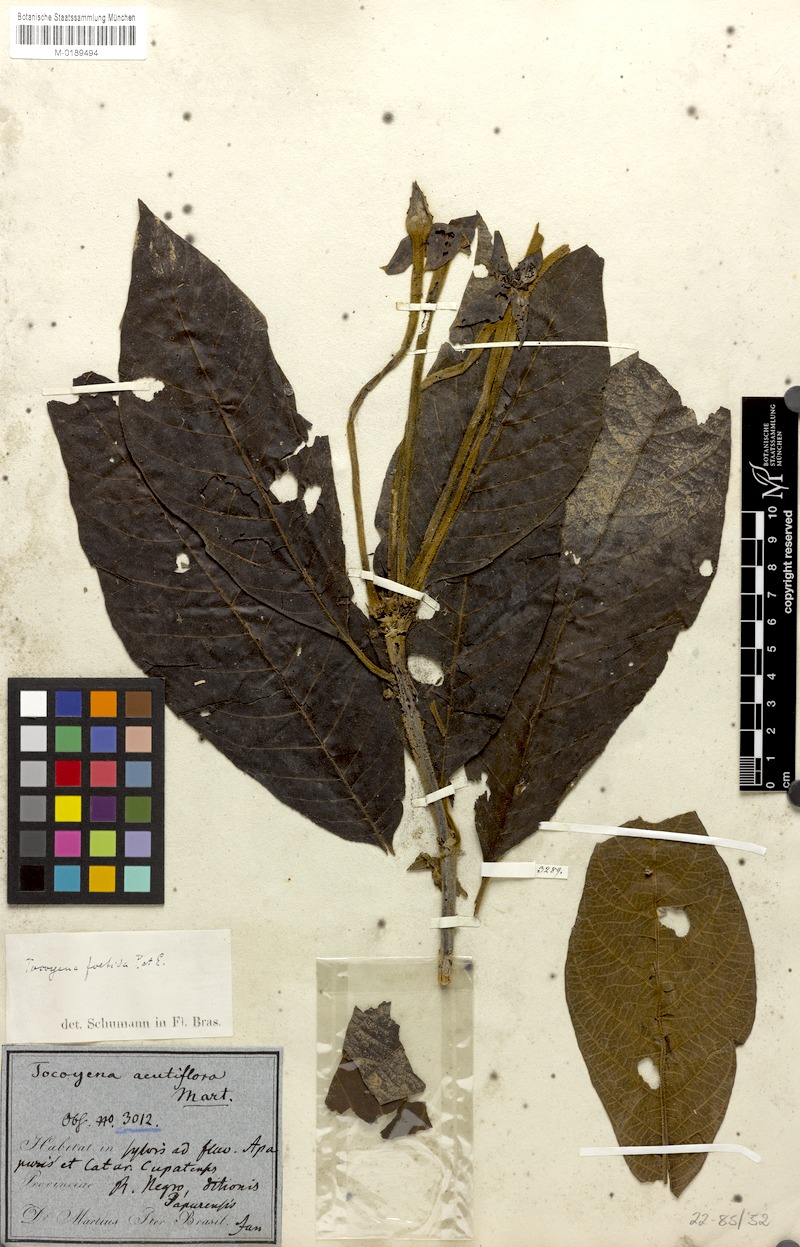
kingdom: Plantae
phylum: Tracheophyta
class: Magnoliopsida
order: Gentianales
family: Rubiaceae
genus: Tocoyena
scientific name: Tocoyena foetida
